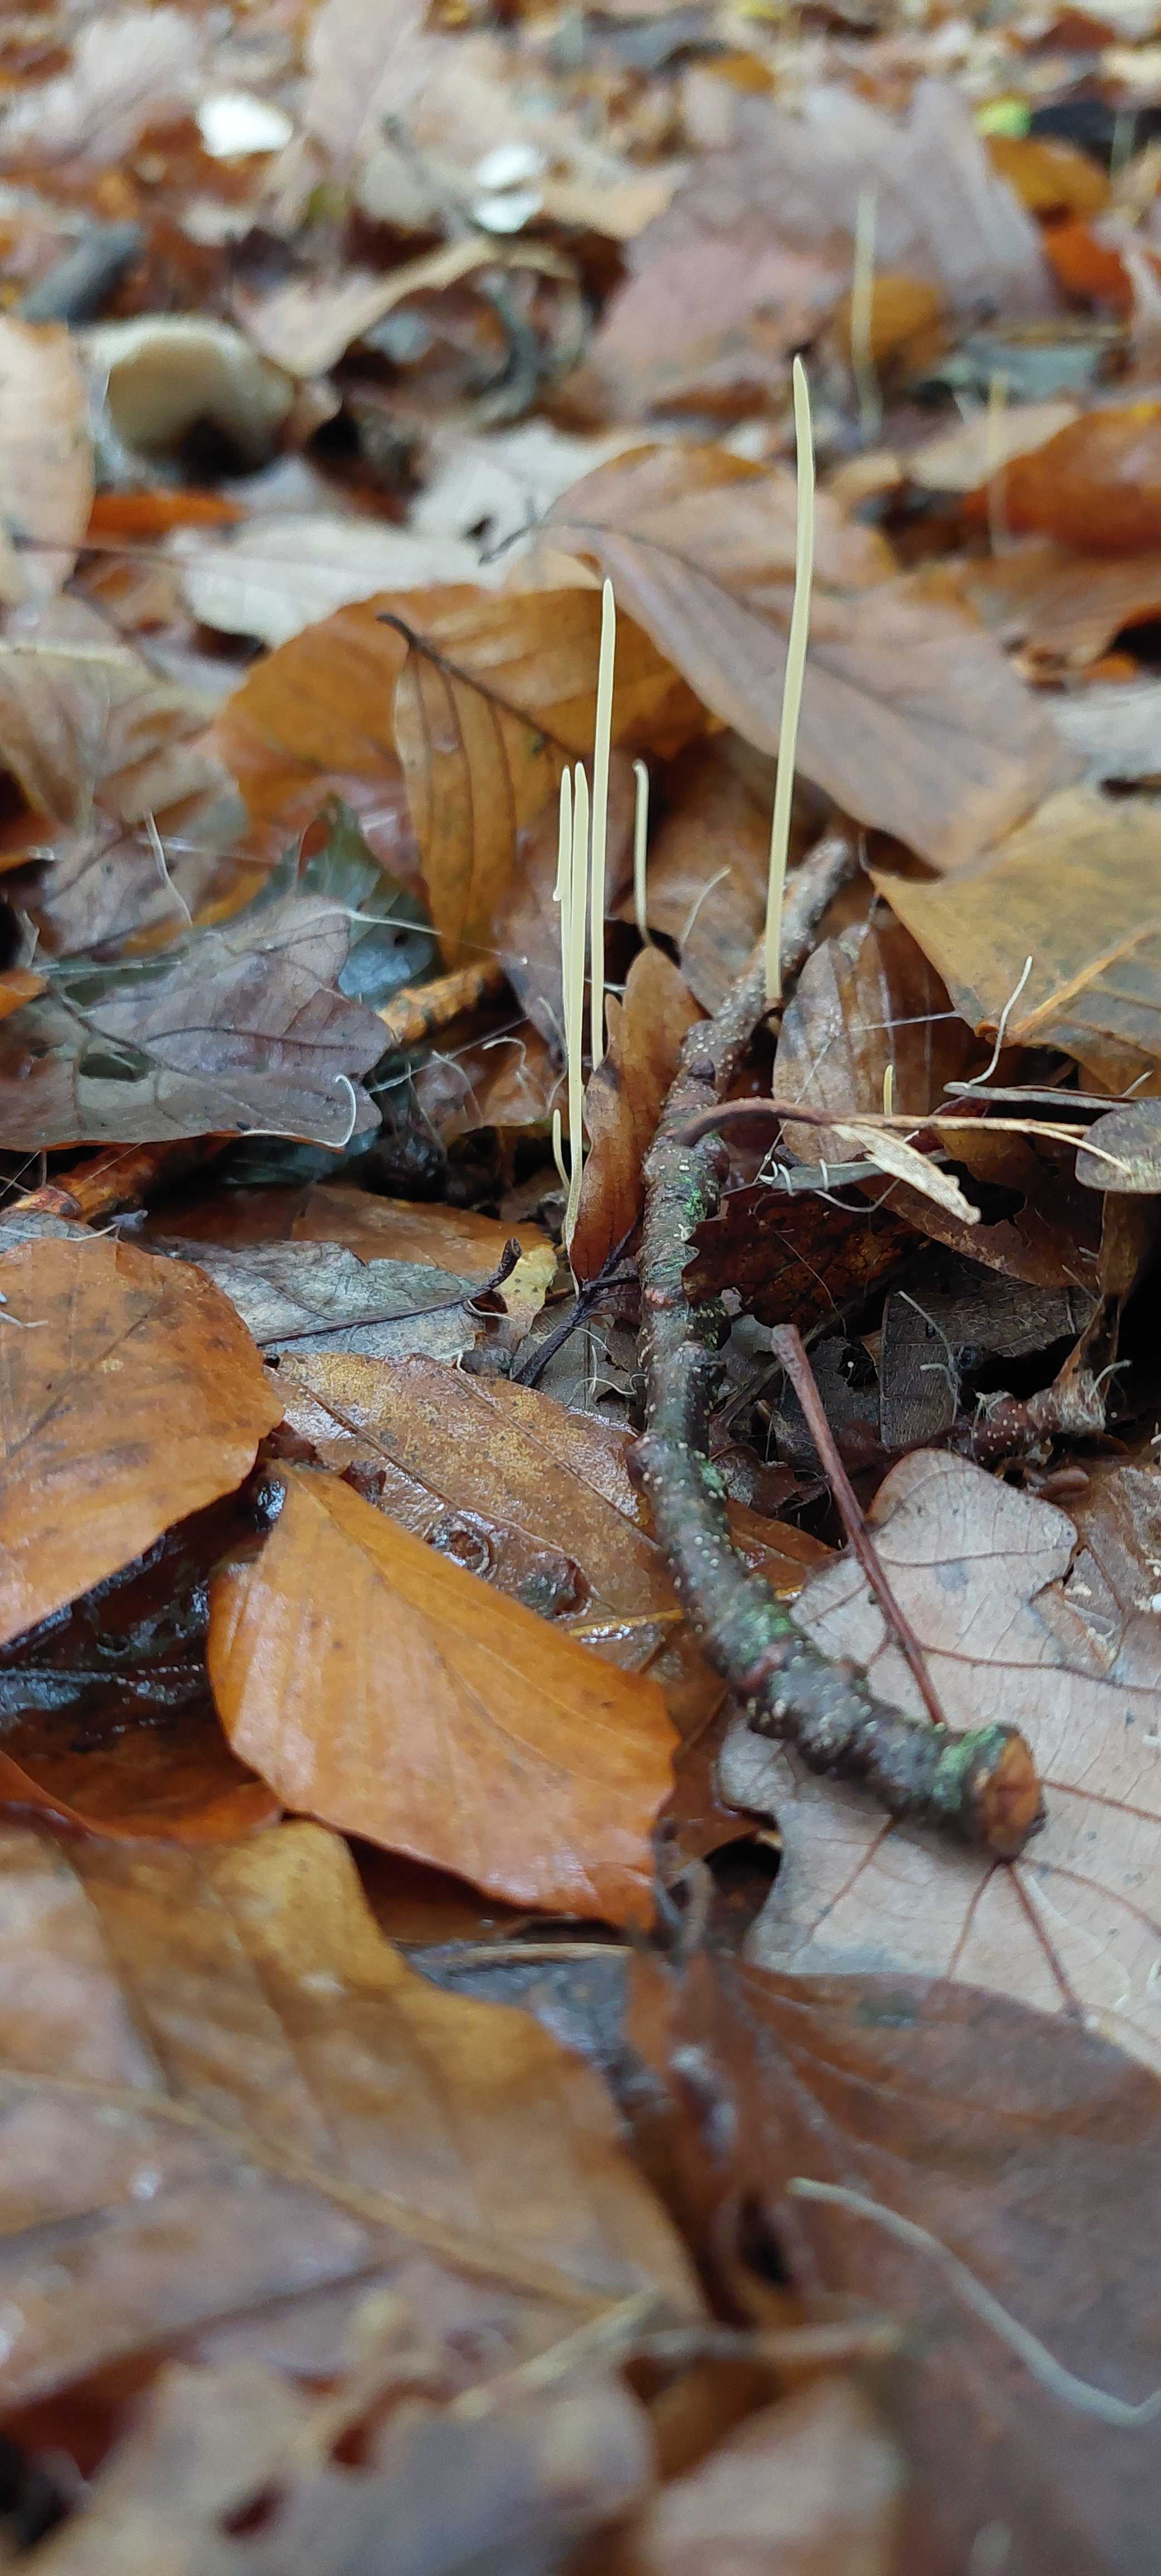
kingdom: Fungi
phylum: Basidiomycota
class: Agaricomycetes
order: Agaricales
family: Typhulaceae
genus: Typhula
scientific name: Typhula juncea
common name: trådagtig rørkølle
